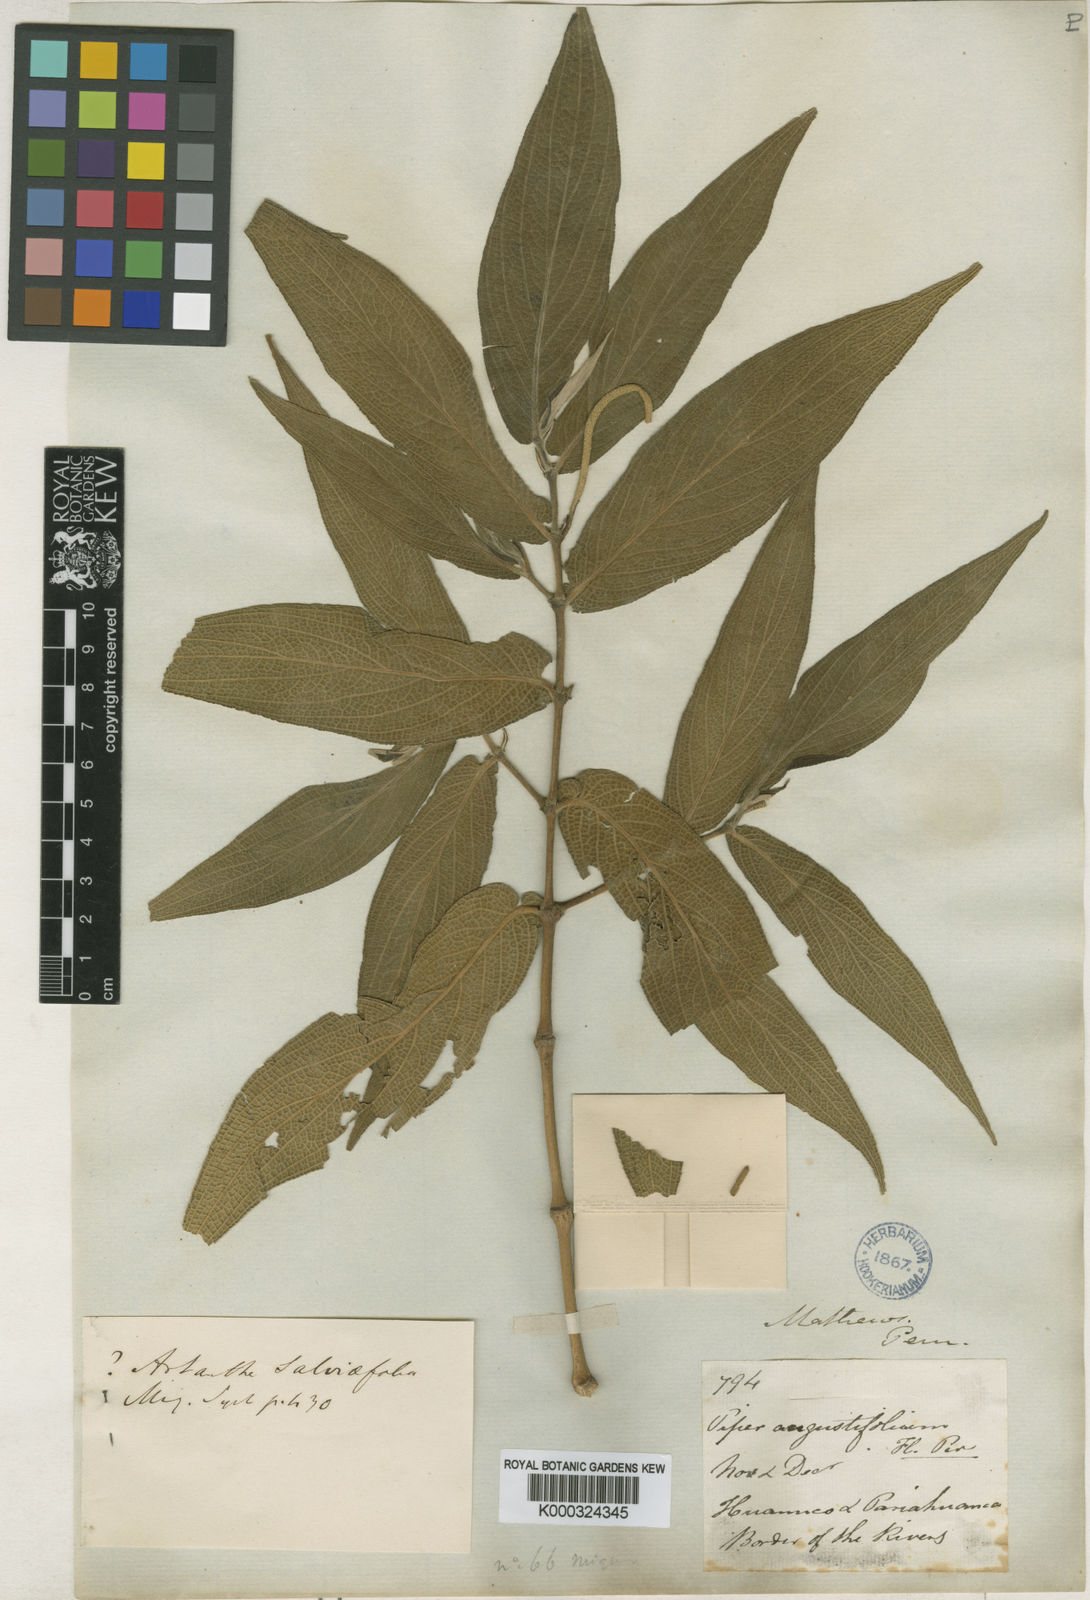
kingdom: Plantae
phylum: Tracheophyta
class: Magnoliopsida
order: Piperales
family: Piperaceae
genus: Piper
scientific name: Piper aduncum
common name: Spiked pepper
